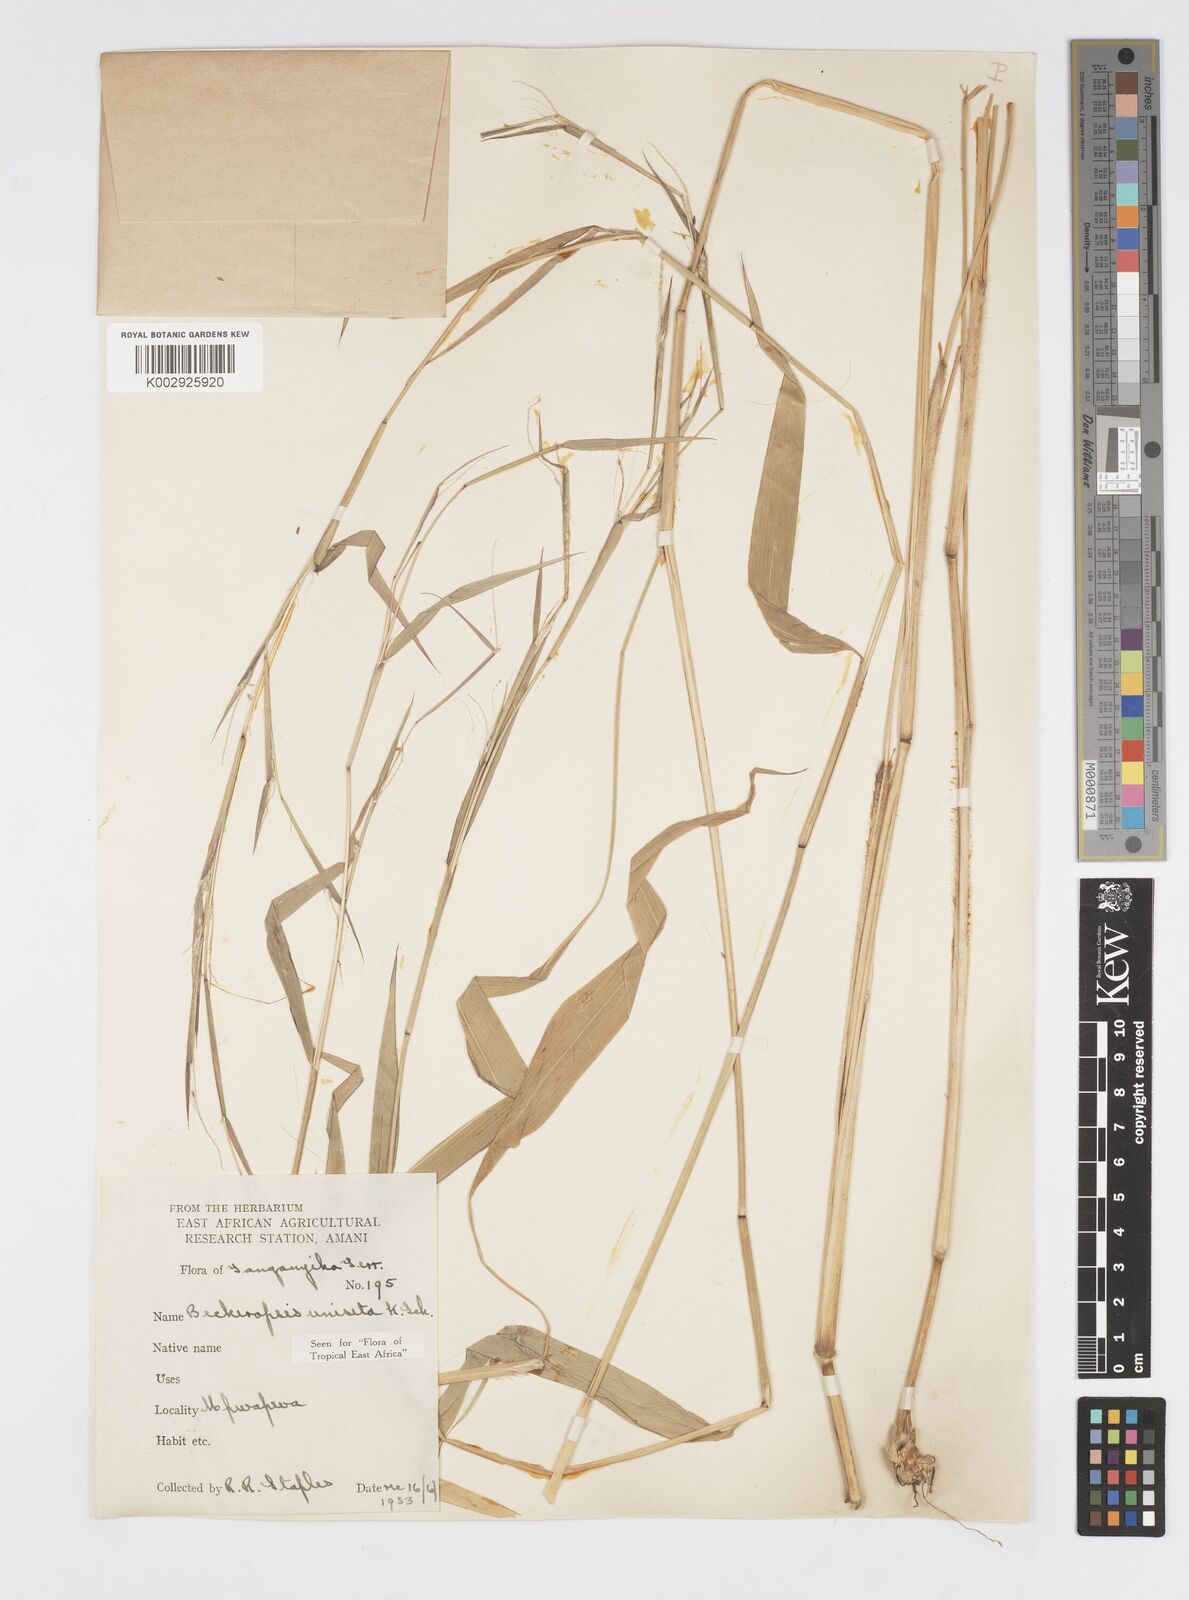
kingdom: Plantae
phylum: Tracheophyta
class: Liliopsida
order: Poales
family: Poaceae
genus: Cenchrus
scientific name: Cenchrus unisetus
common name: Natal grass
